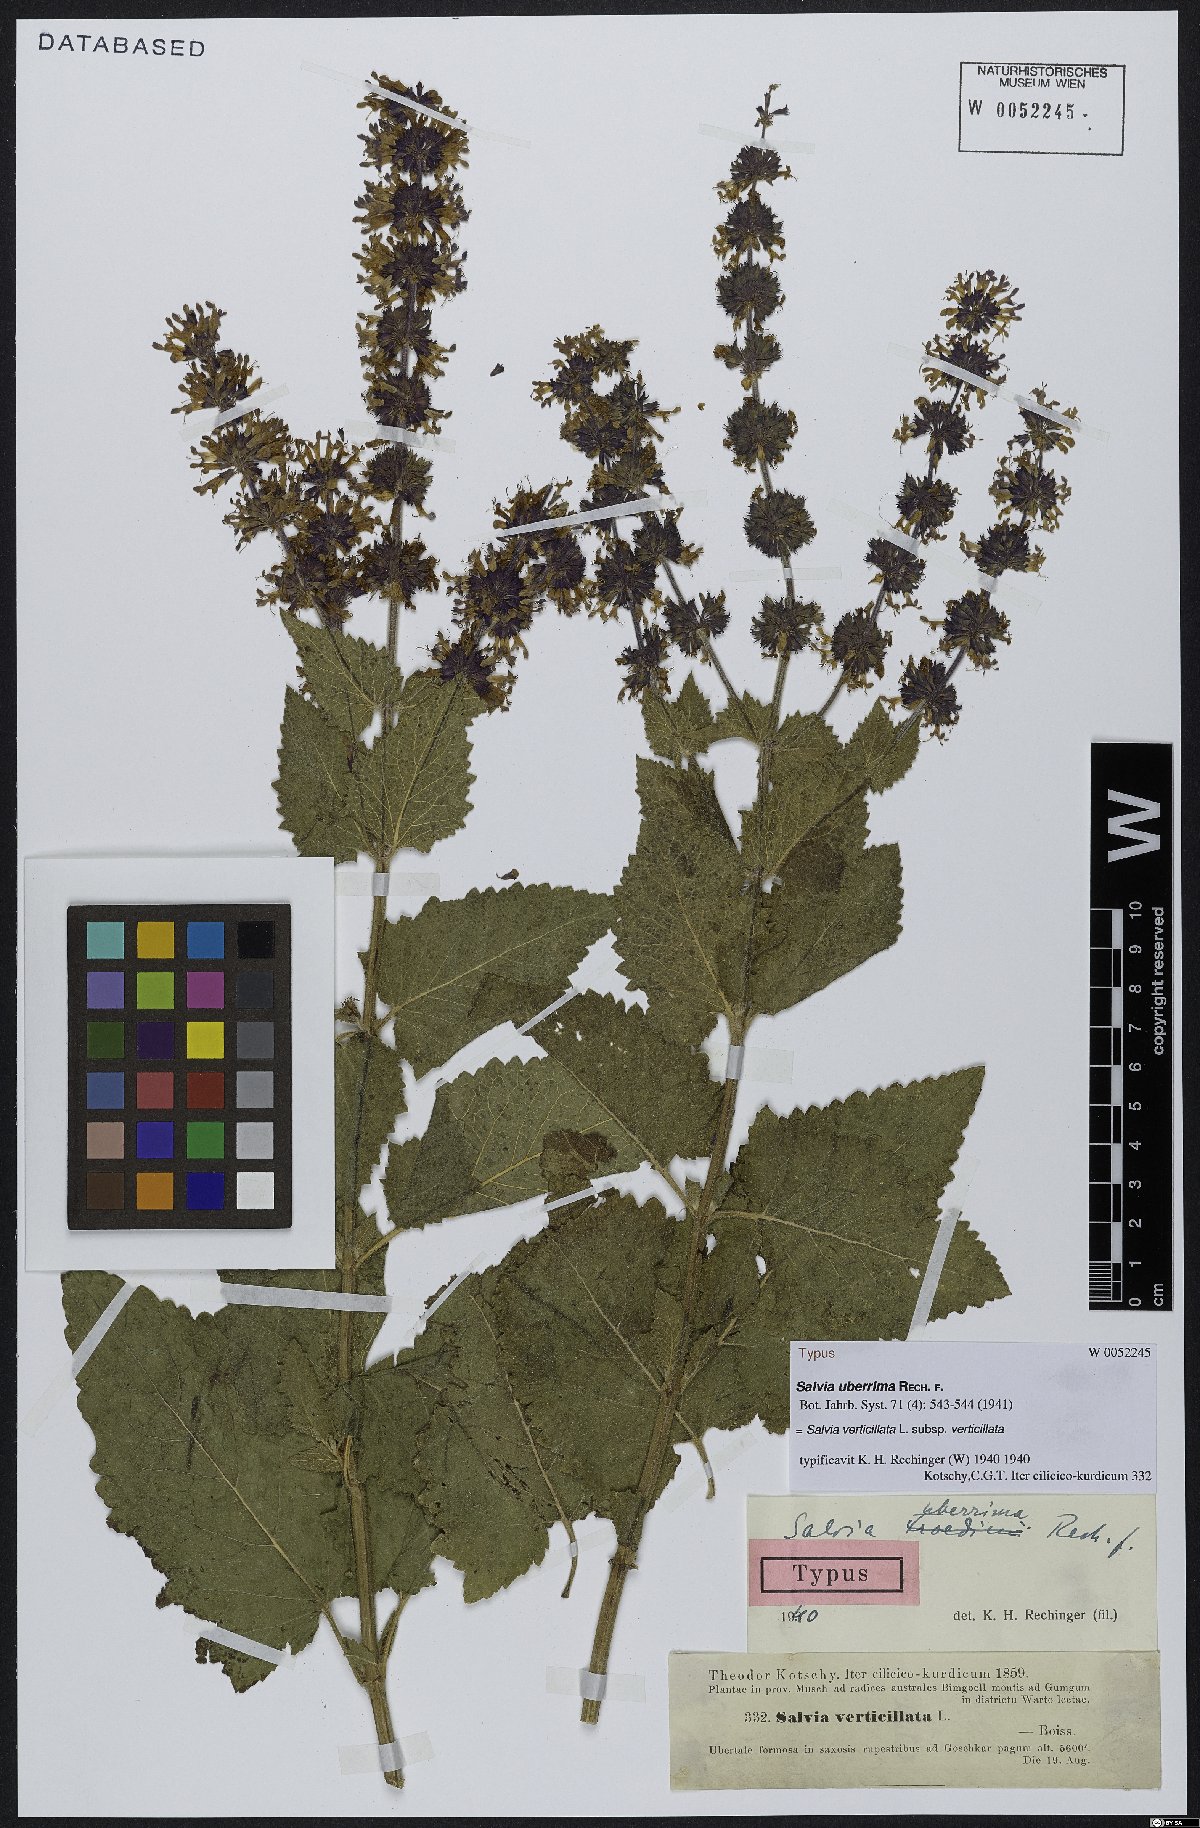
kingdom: Plantae
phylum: Tracheophyta
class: Magnoliopsida
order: Lamiales
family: Lamiaceae
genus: Salvia
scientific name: Salvia verticillata
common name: Whorled clary
